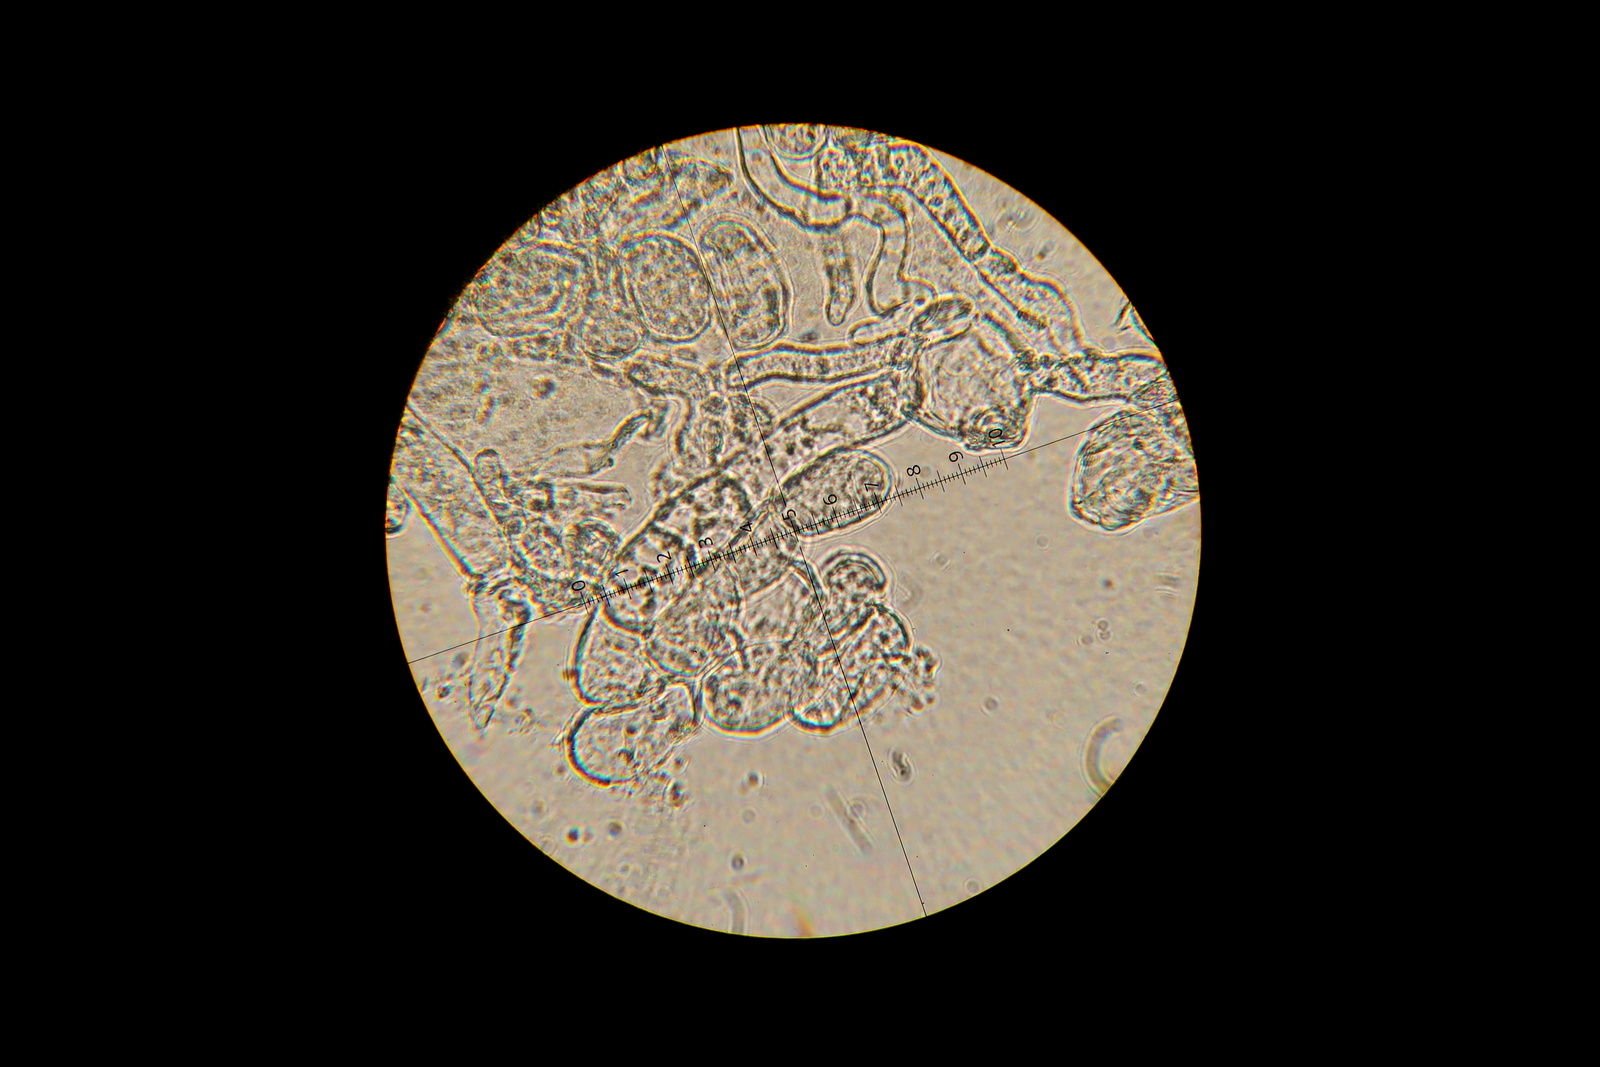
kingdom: Fungi
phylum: Ascomycota
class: Leotiomycetes
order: Helotiales
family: Erysiphaceae
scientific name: Erysiphaceae
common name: meldugfamilien
